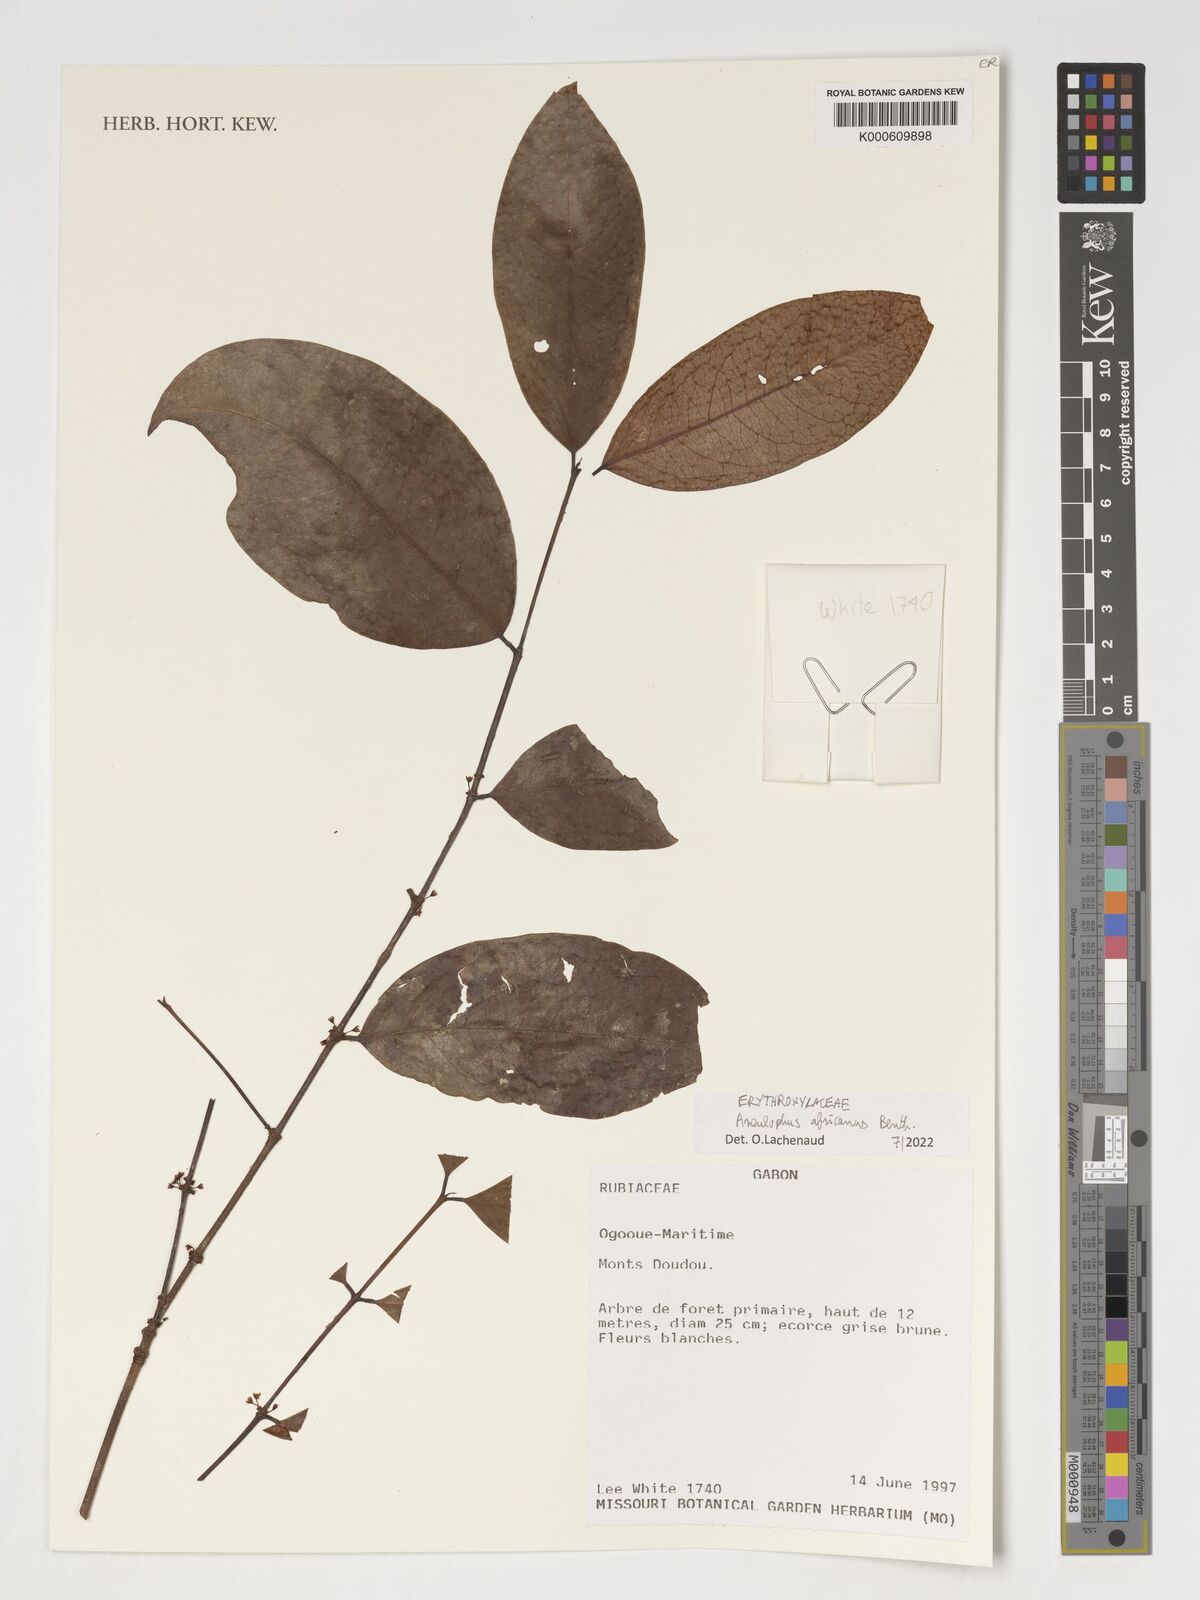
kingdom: Plantae
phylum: Tracheophyta
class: Magnoliopsida
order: Malpighiales
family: Erythroxylaceae
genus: Aneulophus
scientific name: Aneulophus africanus
